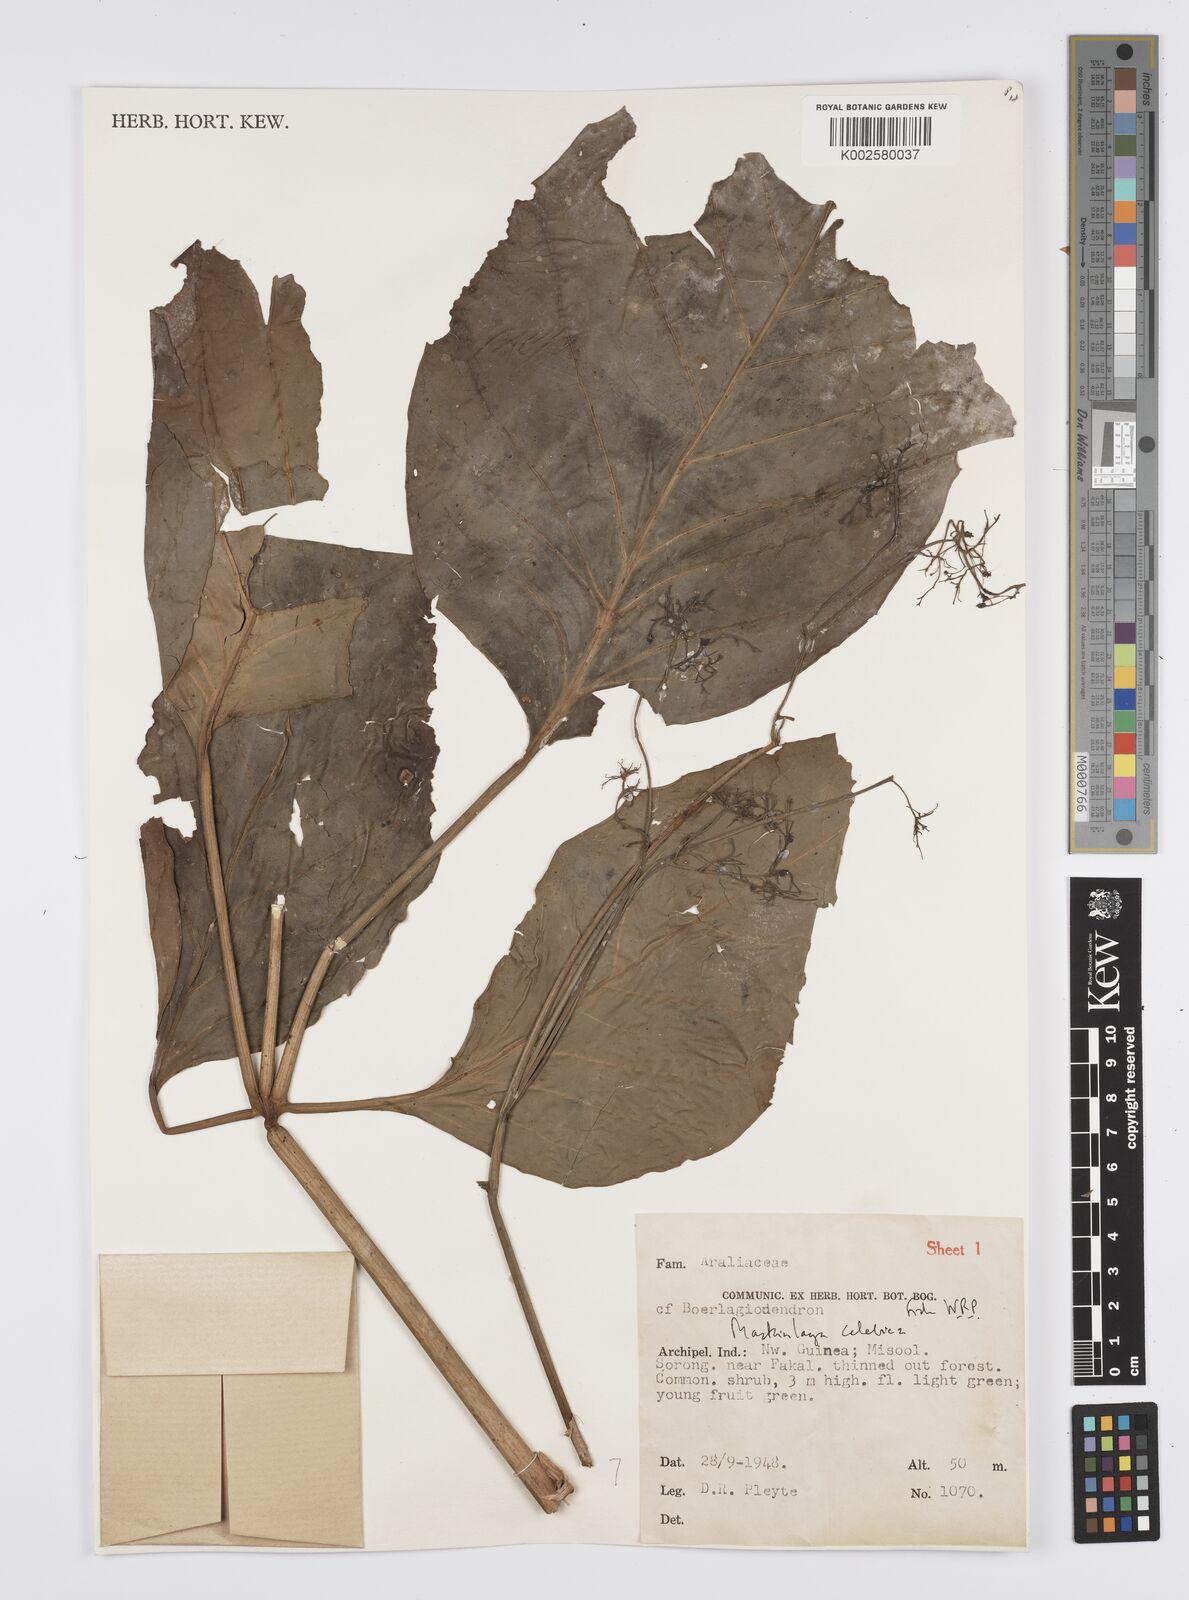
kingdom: Plantae
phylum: Tracheophyta
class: Magnoliopsida
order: Apiales
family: Apiaceae
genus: Mackinlaya
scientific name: Mackinlaya celebica
